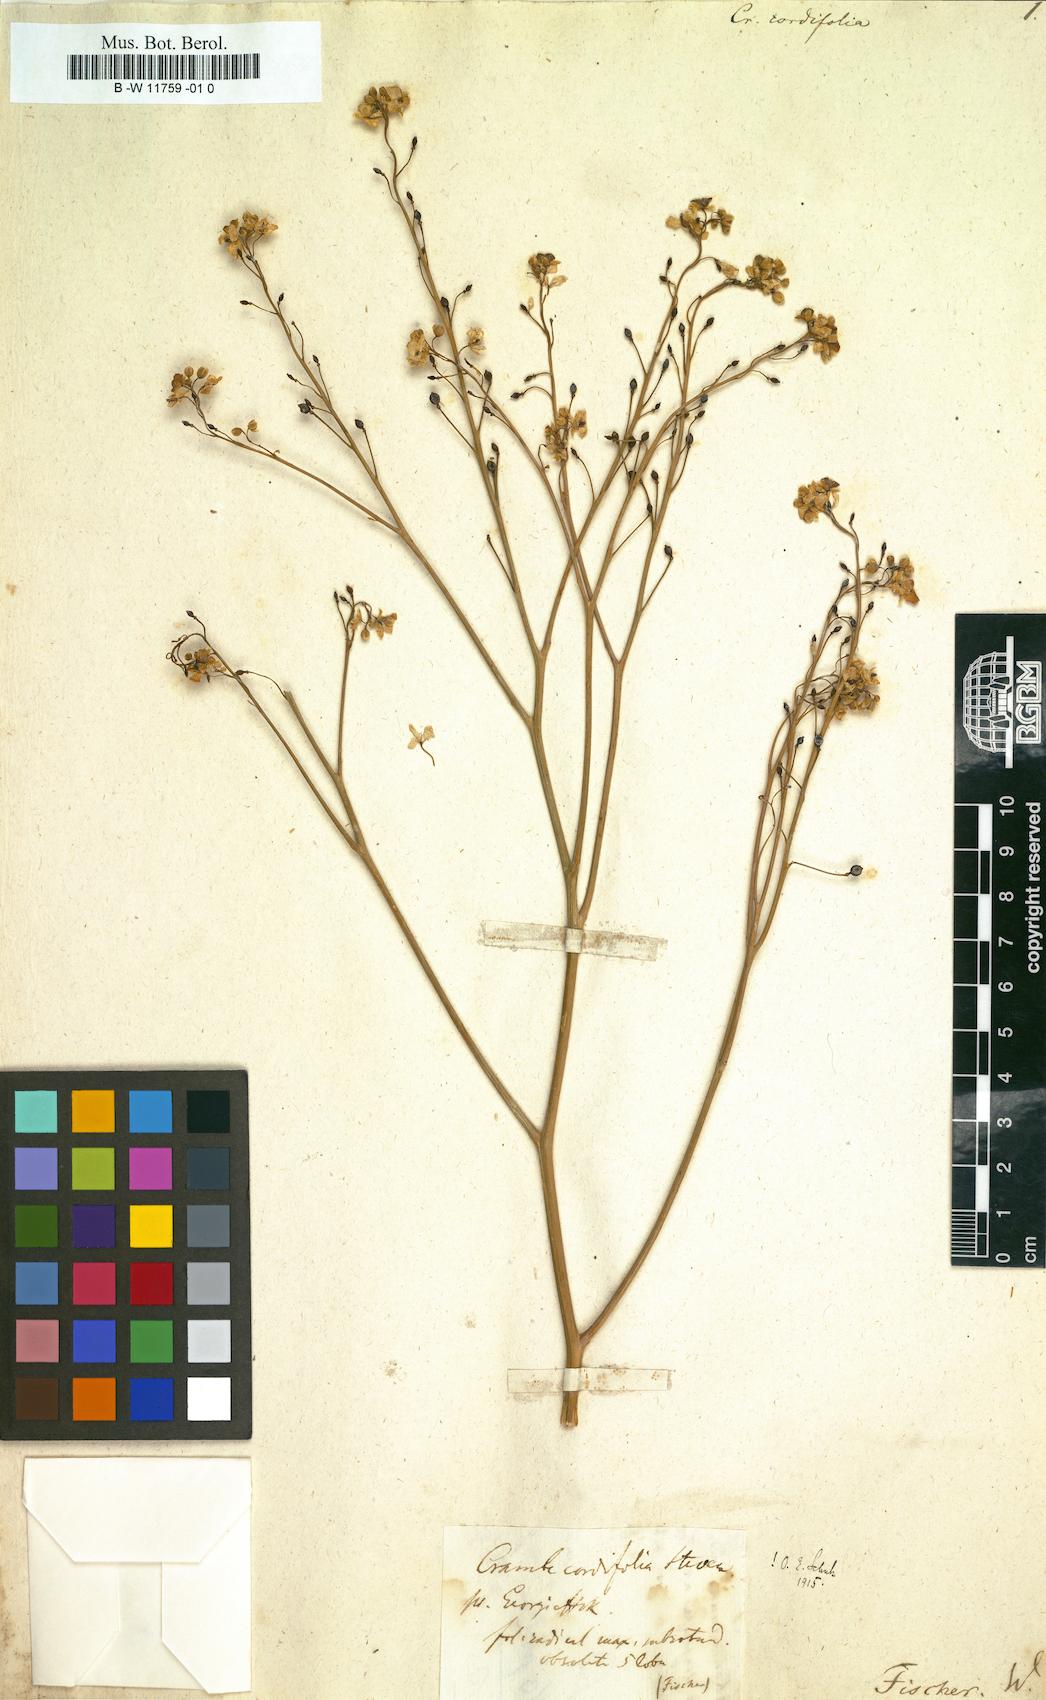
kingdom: Plantae
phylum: Tracheophyta
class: Magnoliopsida
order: Brassicales
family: Brassicaceae
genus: Crambe
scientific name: Crambe cordifolia
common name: Greater sea-kale
